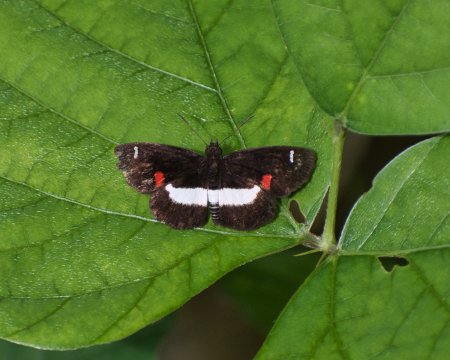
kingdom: Animalia
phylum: Arthropoda
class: Insecta
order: Lepidoptera
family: Hesperiidae
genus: Paramimus
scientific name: Paramimus stigma
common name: Marciana Skipper
